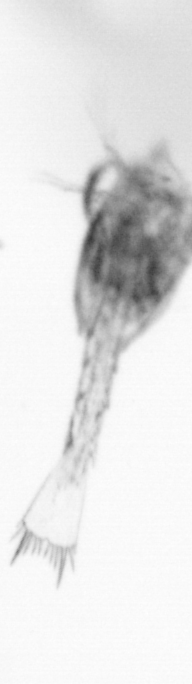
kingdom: Animalia
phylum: Arthropoda
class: Copepoda
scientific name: Copepoda
